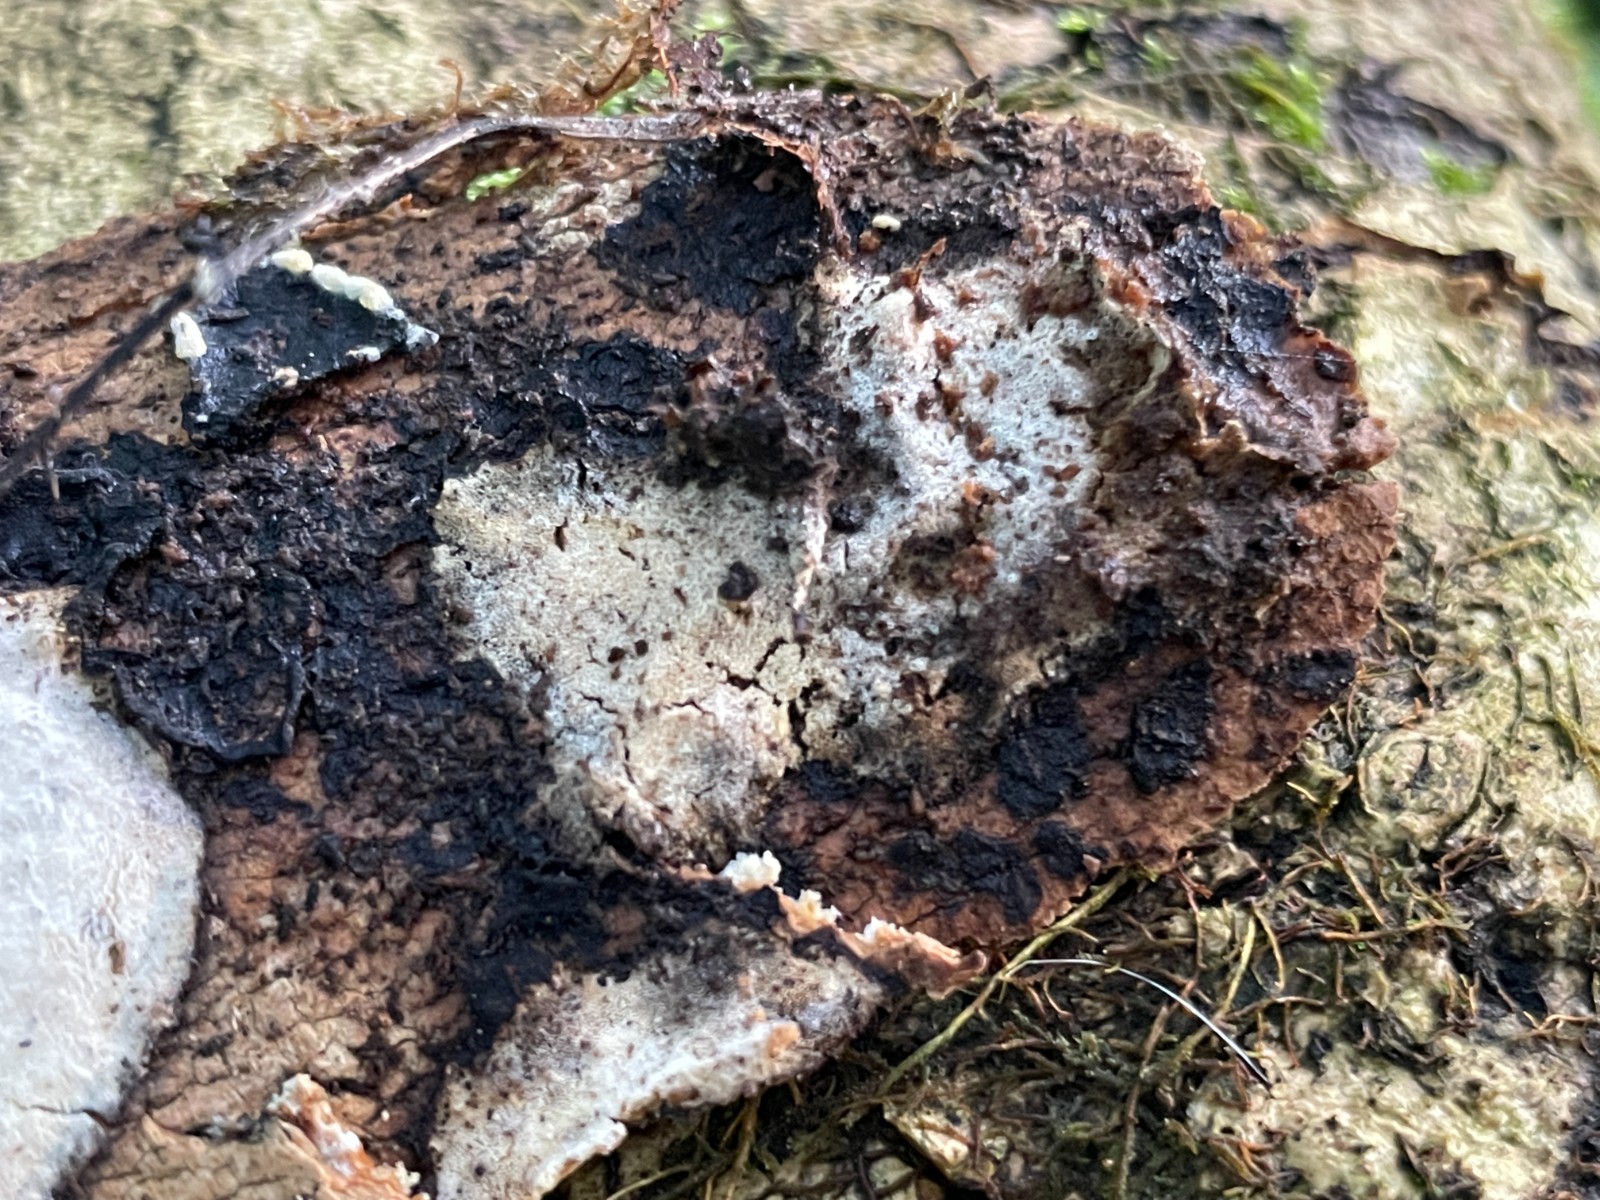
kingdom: Fungi
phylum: Ascomycota
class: Sordariomycetes
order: Hypocreales
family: Hypocreaceae
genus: Protocrea
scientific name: Protocrea farinosa
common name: krystalpore-kødkerne
